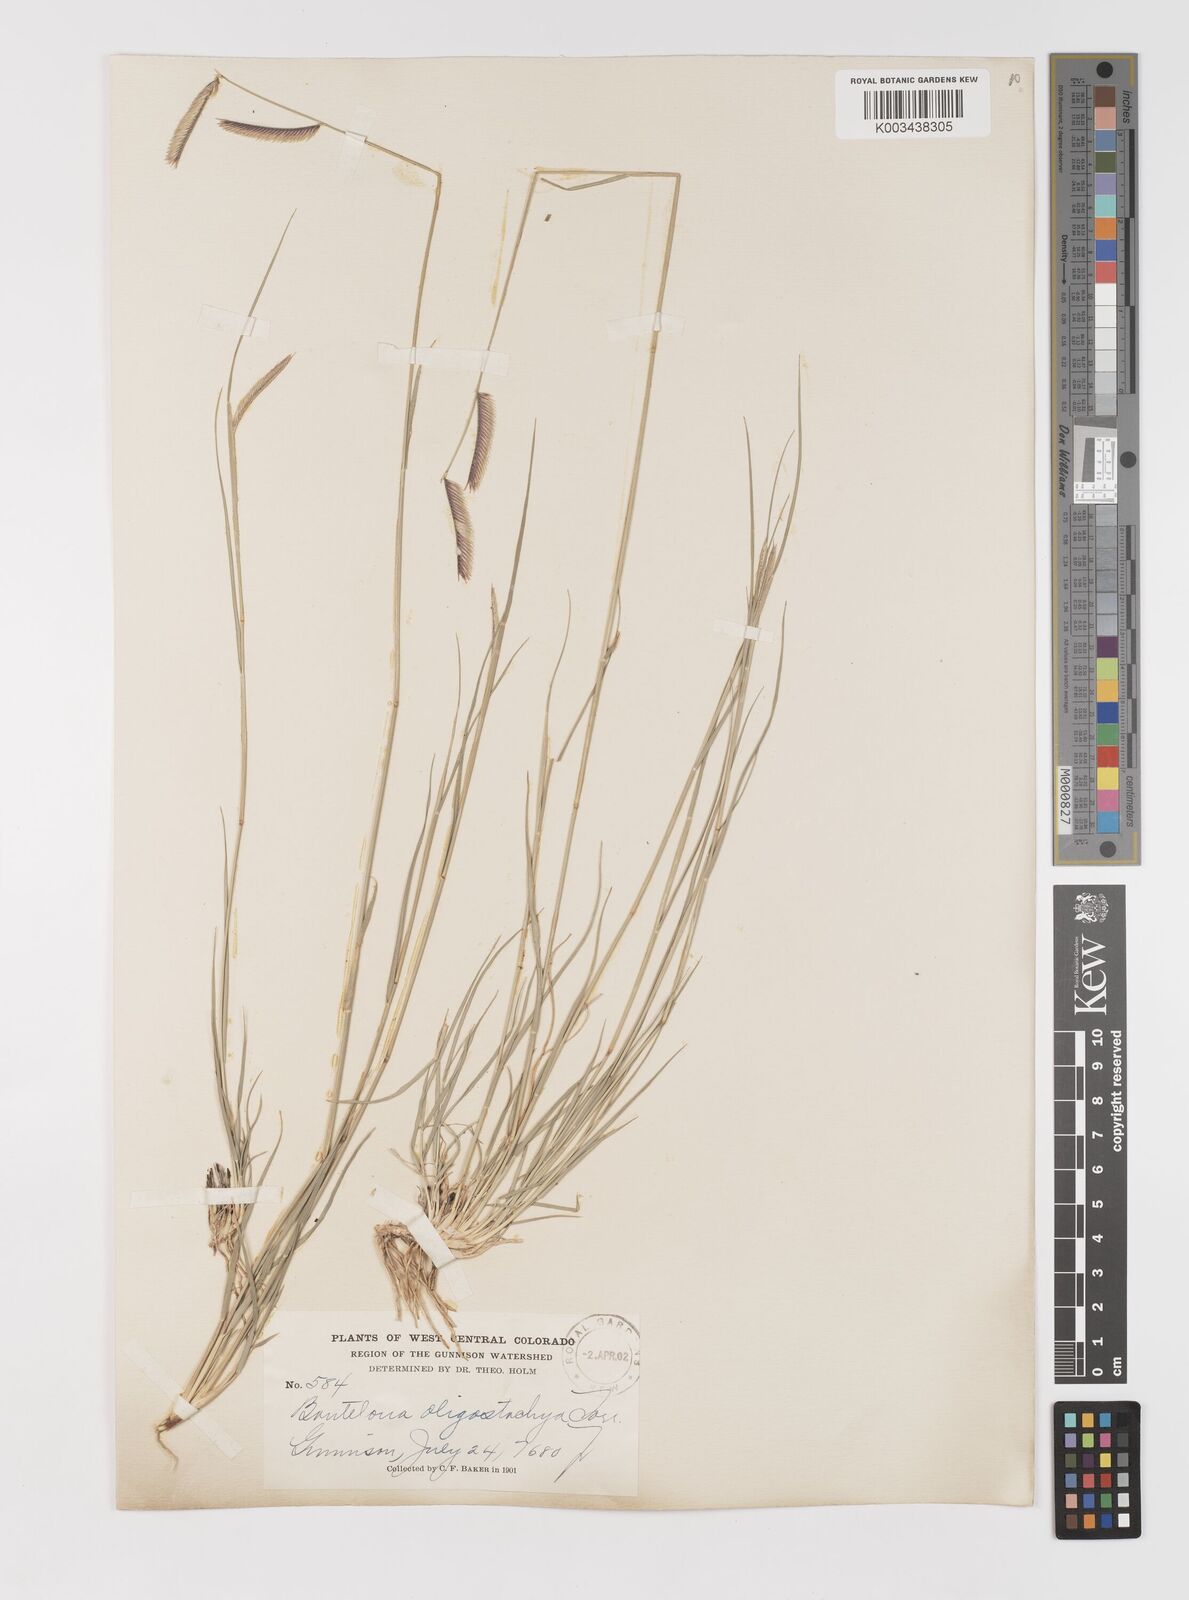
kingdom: Plantae
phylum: Tracheophyta
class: Liliopsida
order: Poales
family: Poaceae
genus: Bouteloua
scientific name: Bouteloua
